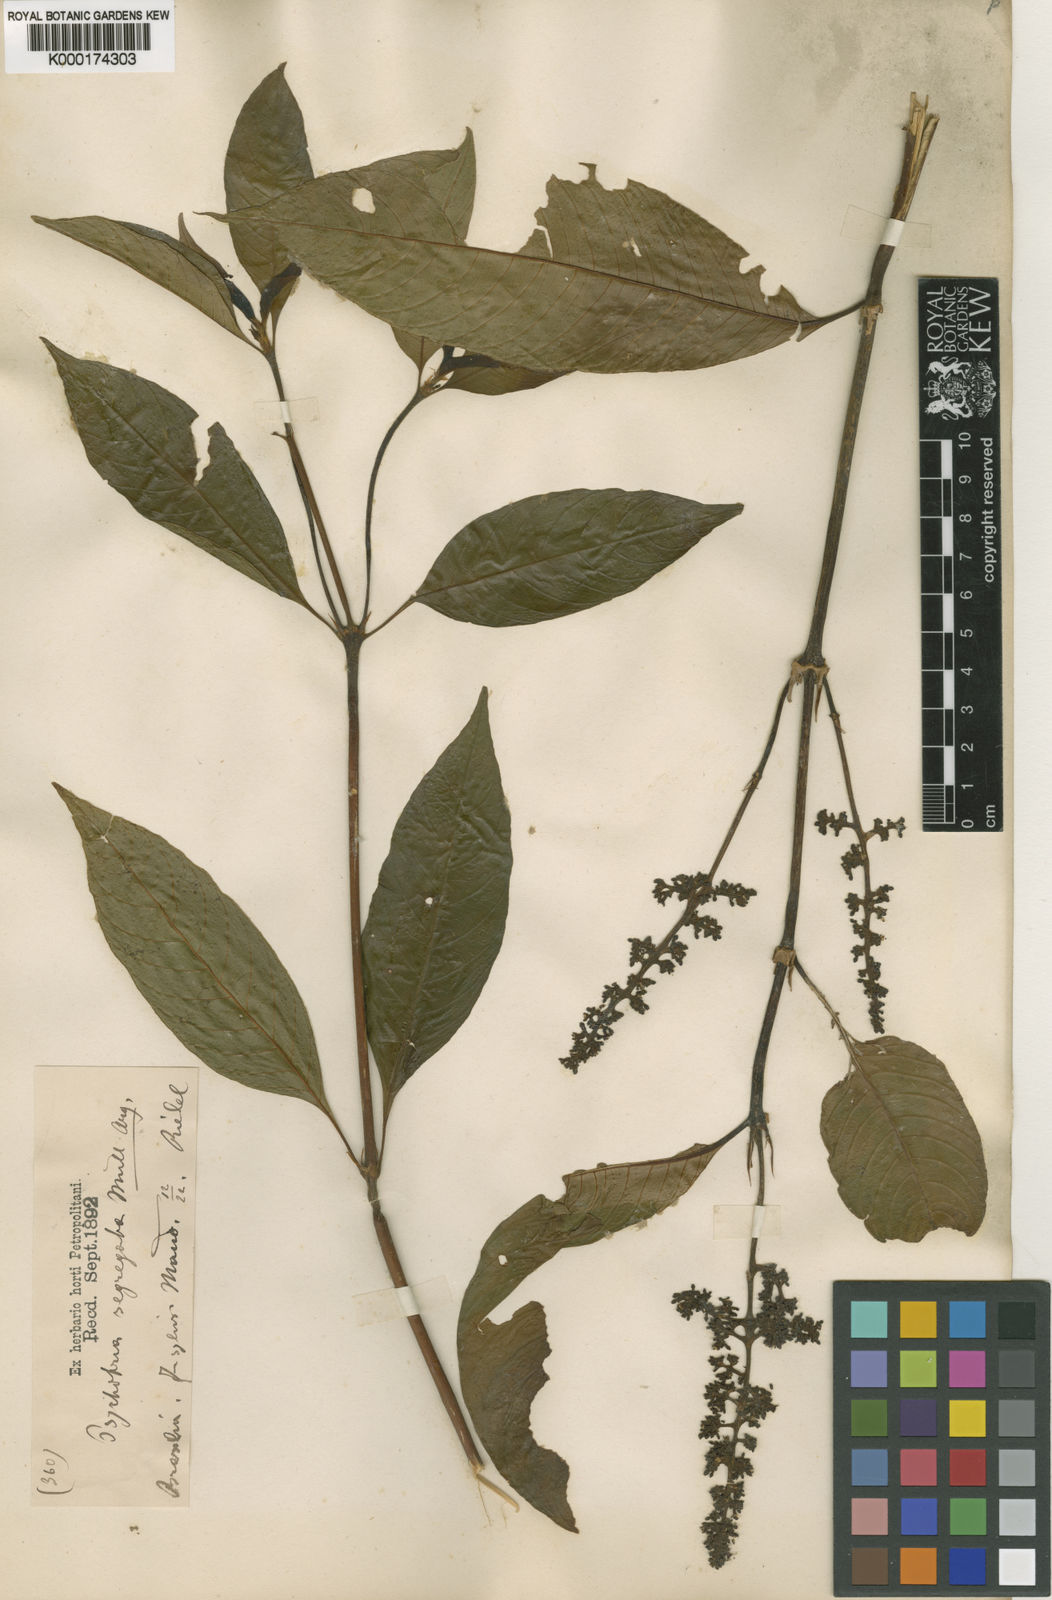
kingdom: Plantae
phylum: Tracheophyta
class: Magnoliopsida
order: Gentianales
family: Rubiaceae
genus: Psychotria
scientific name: Psychotria
